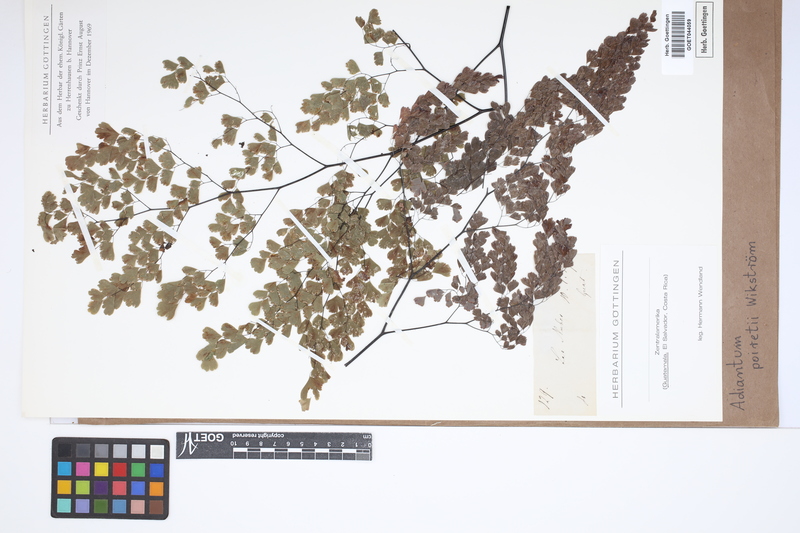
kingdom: Plantae
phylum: Tracheophyta
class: Polypodiopsida
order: Polypodiales
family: Pteridaceae
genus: Adiantum
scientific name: Adiantum poiretii
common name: Mexican maidenhair
